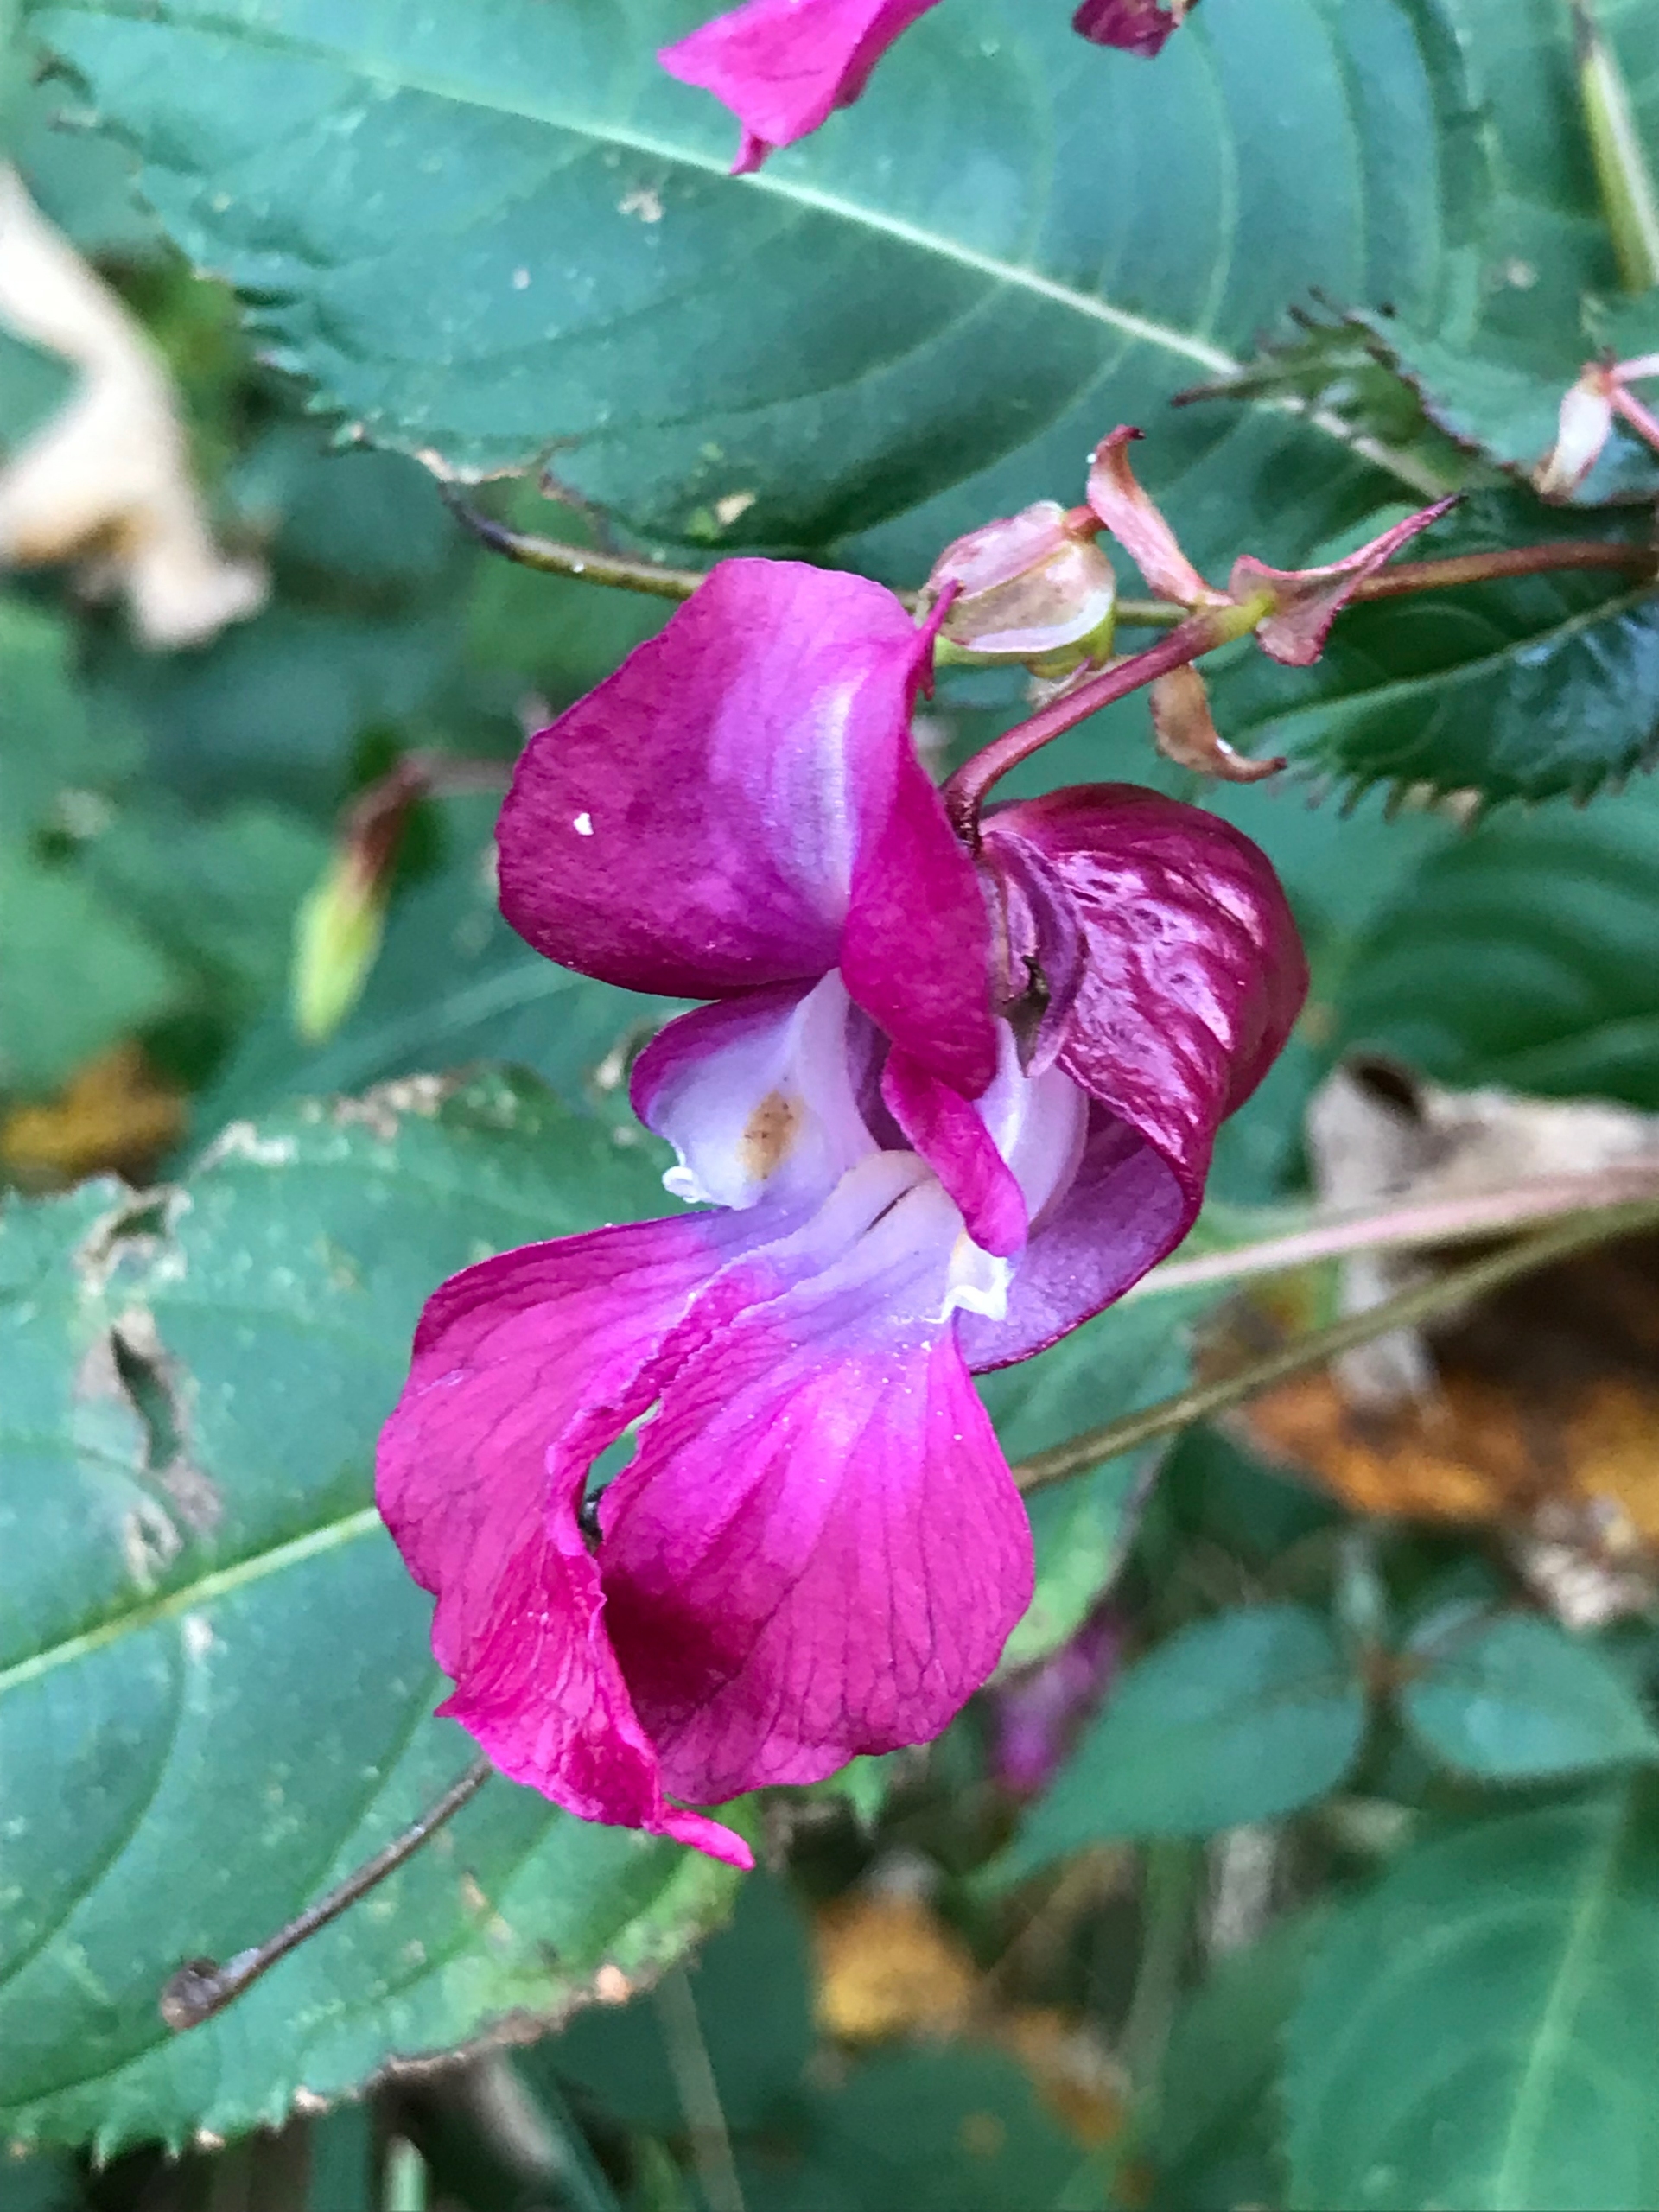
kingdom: Plantae
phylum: Tracheophyta
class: Magnoliopsida
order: Ericales
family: Balsaminaceae
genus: Impatiens
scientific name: Impatiens glandulifera
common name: Kæmpe-balsamin
